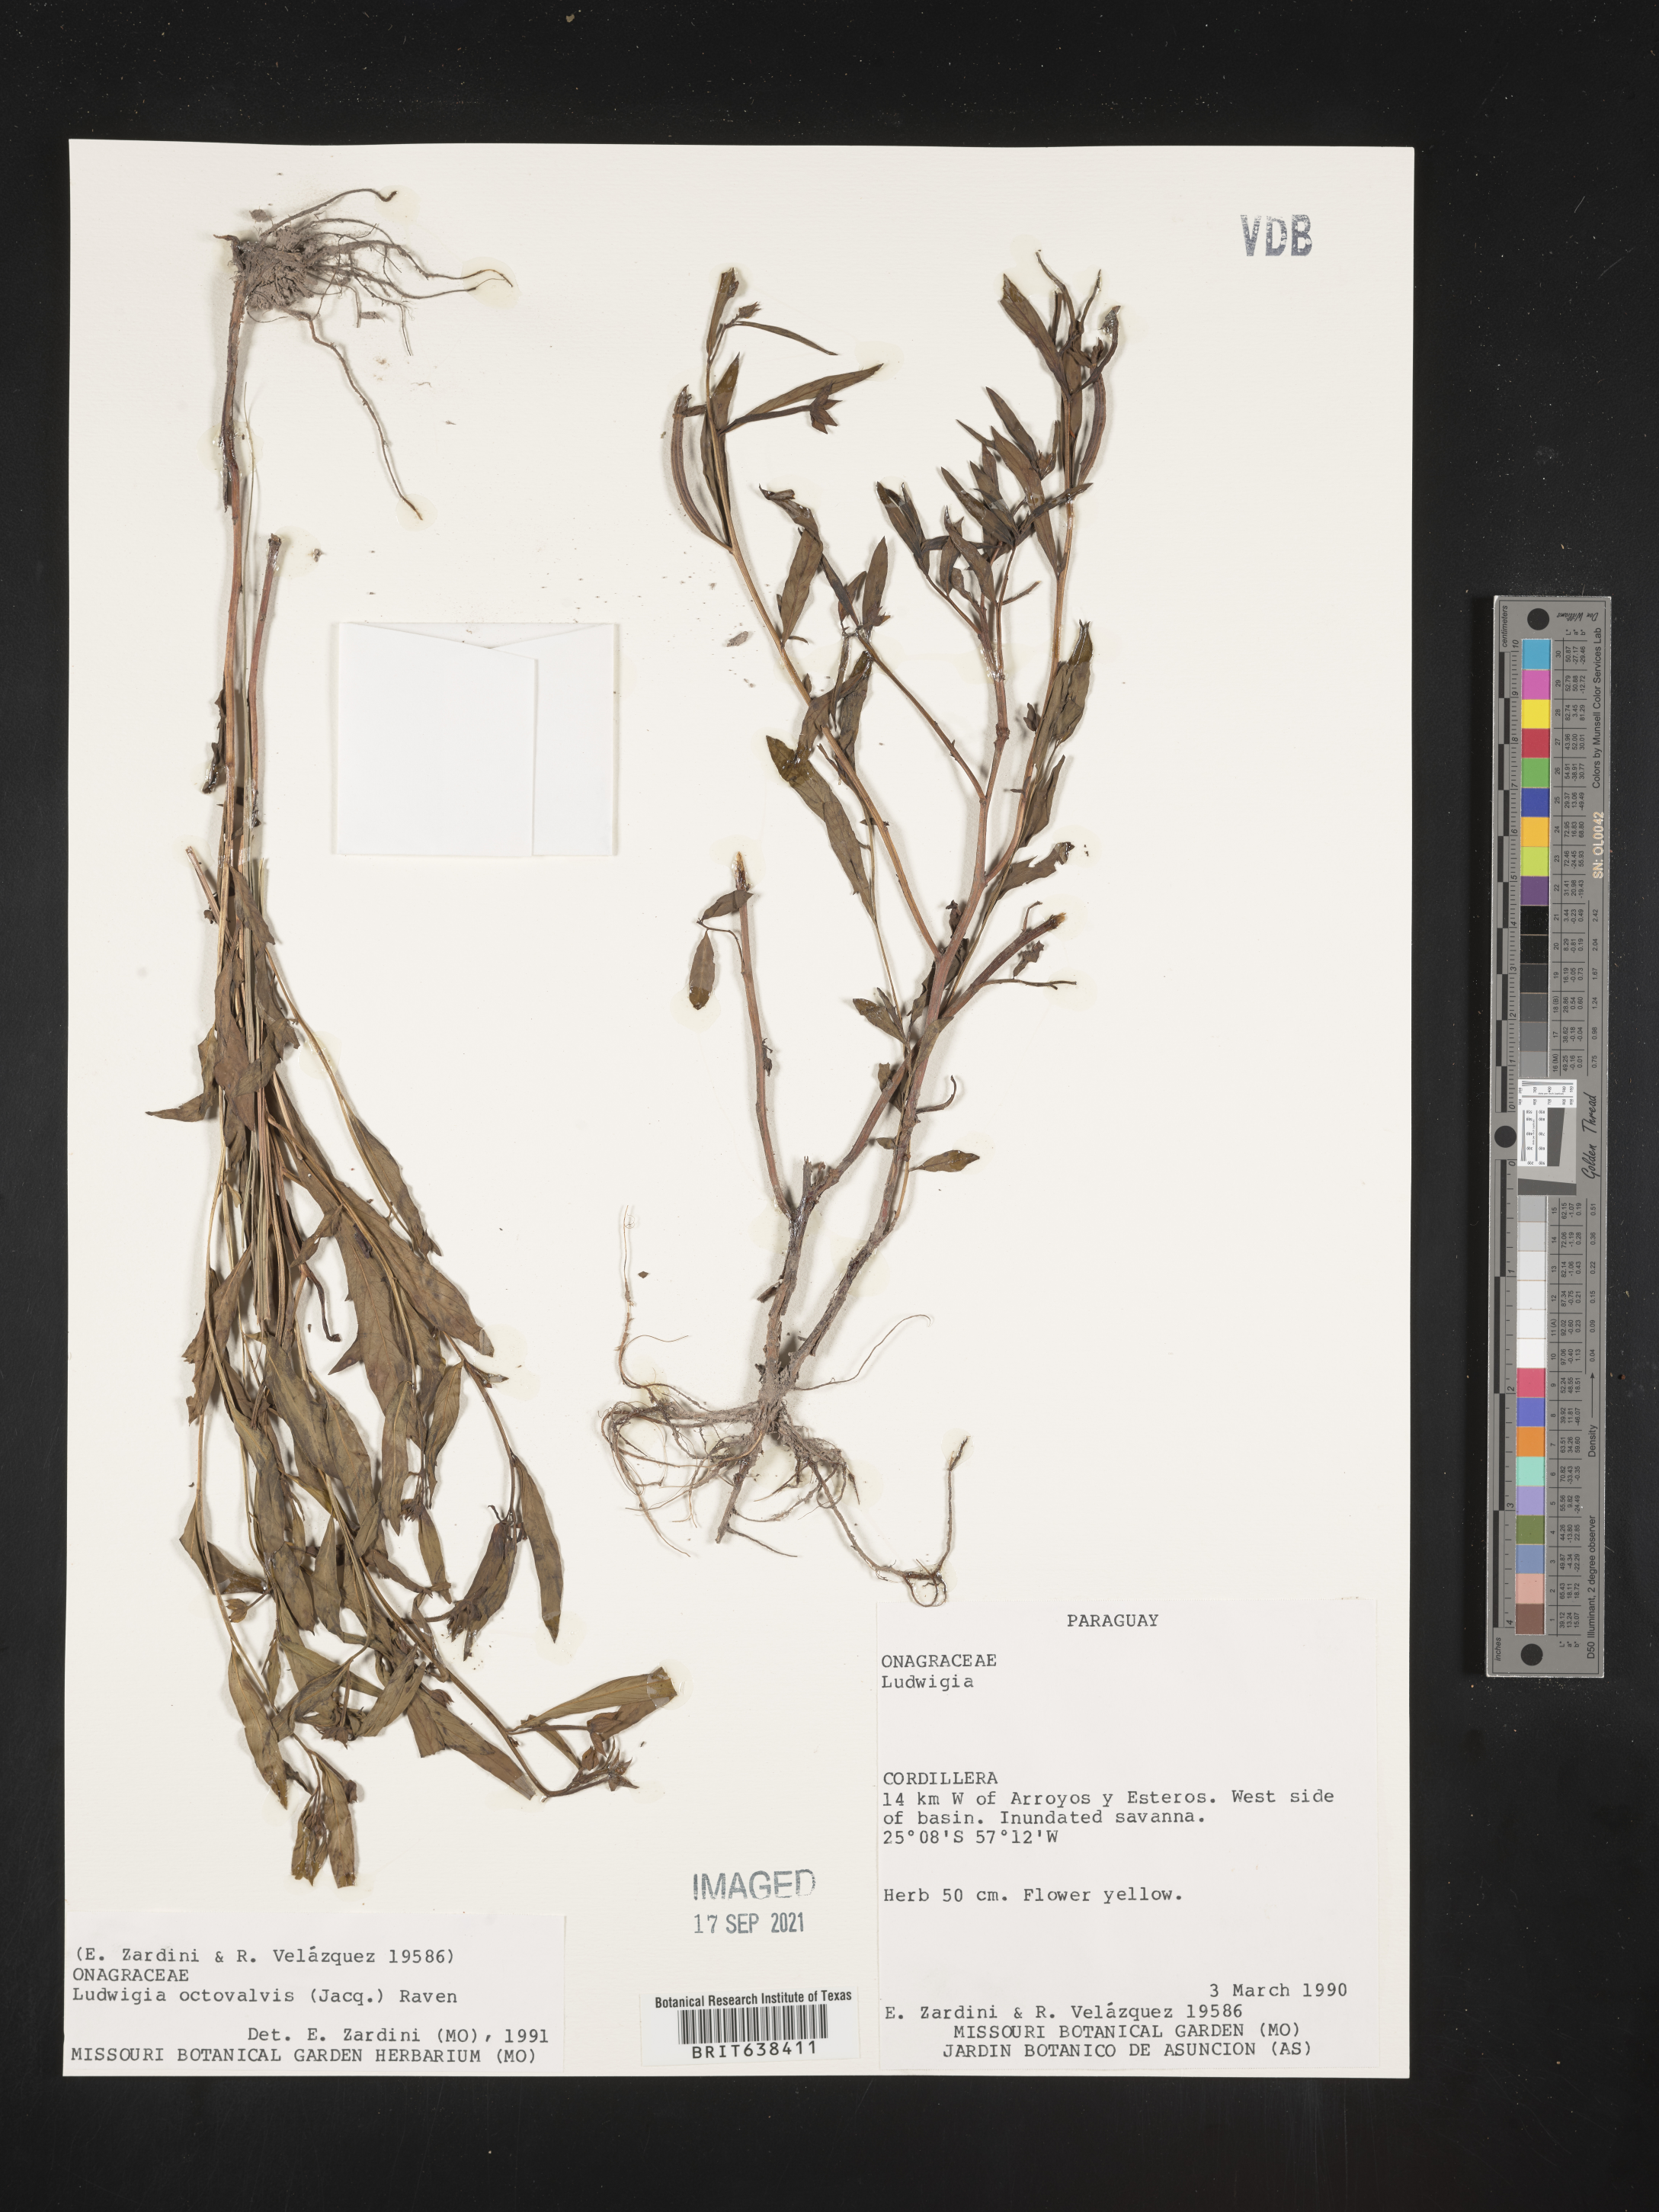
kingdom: Plantae
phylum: Tracheophyta
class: Magnoliopsida
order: Myrtales
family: Onagraceae
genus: Ludwigia
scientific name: Ludwigia
